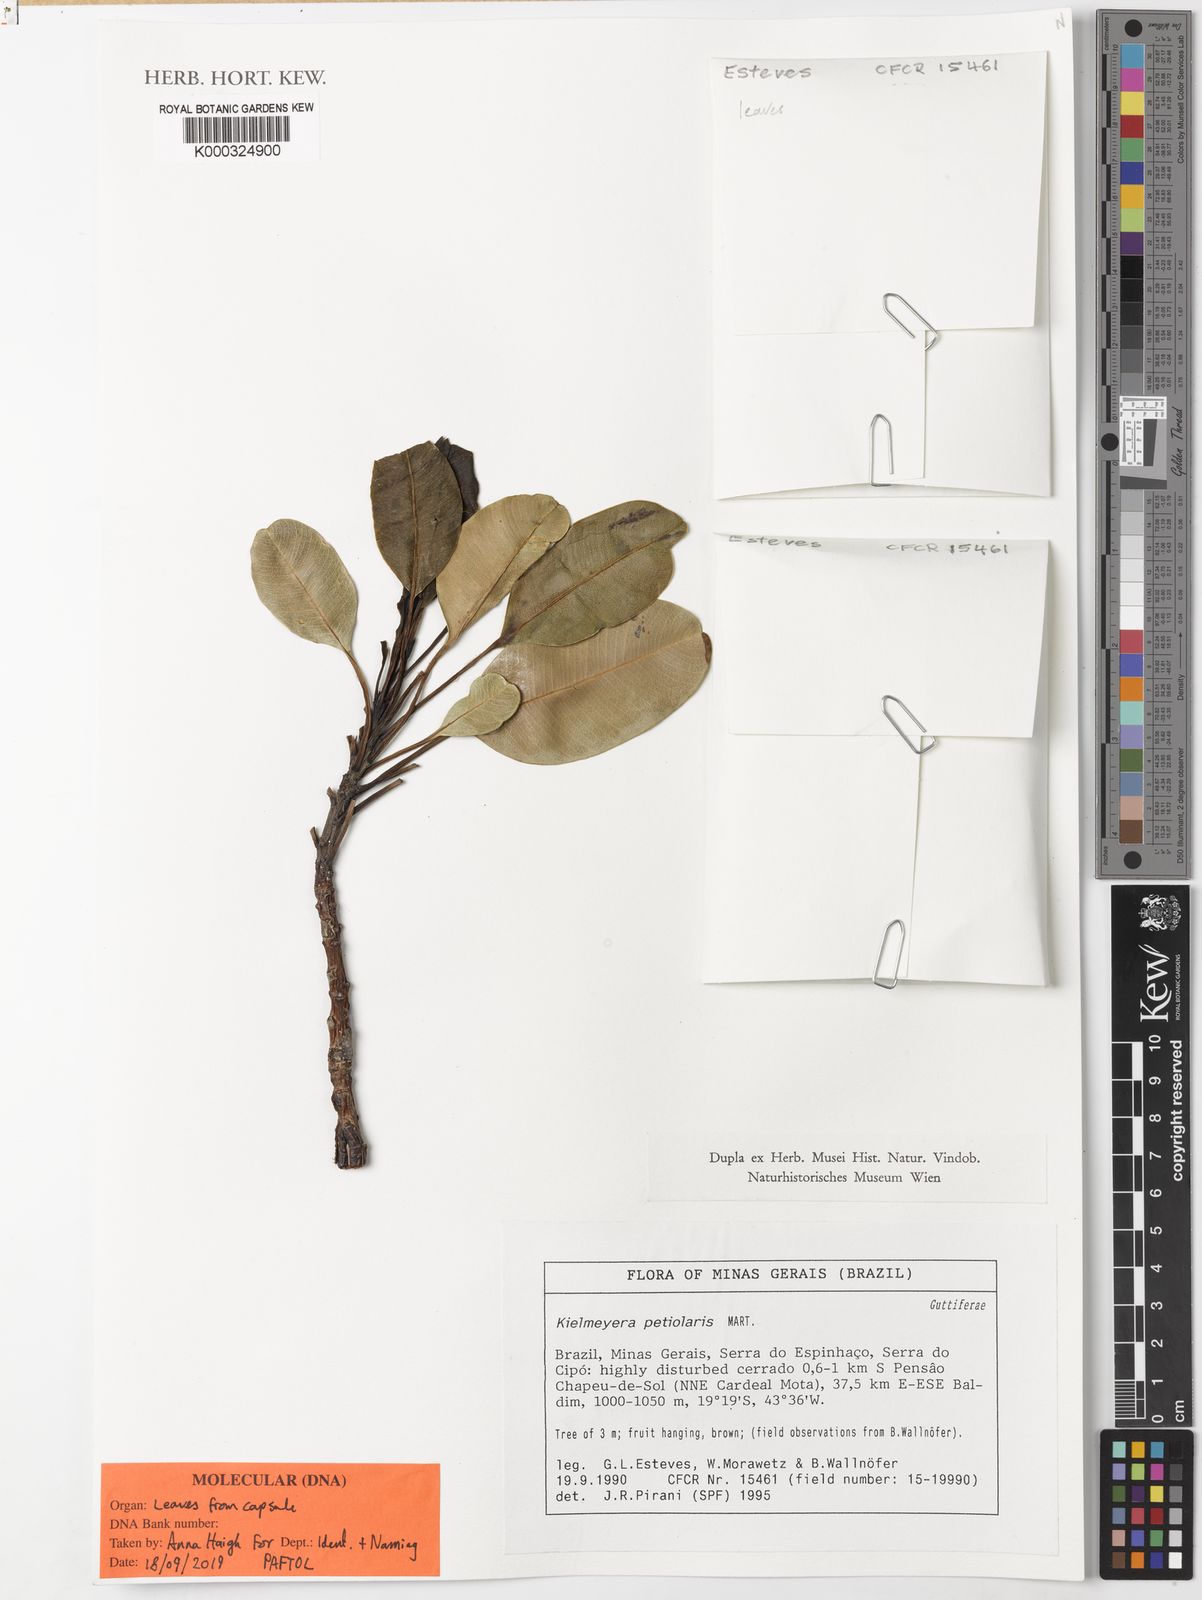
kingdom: Plantae
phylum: Tracheophyta
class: Magnoliopsida
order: Malpighiales
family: Calophyllaceae
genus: Kielmeyera
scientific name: Kielmeyera petiolaris
